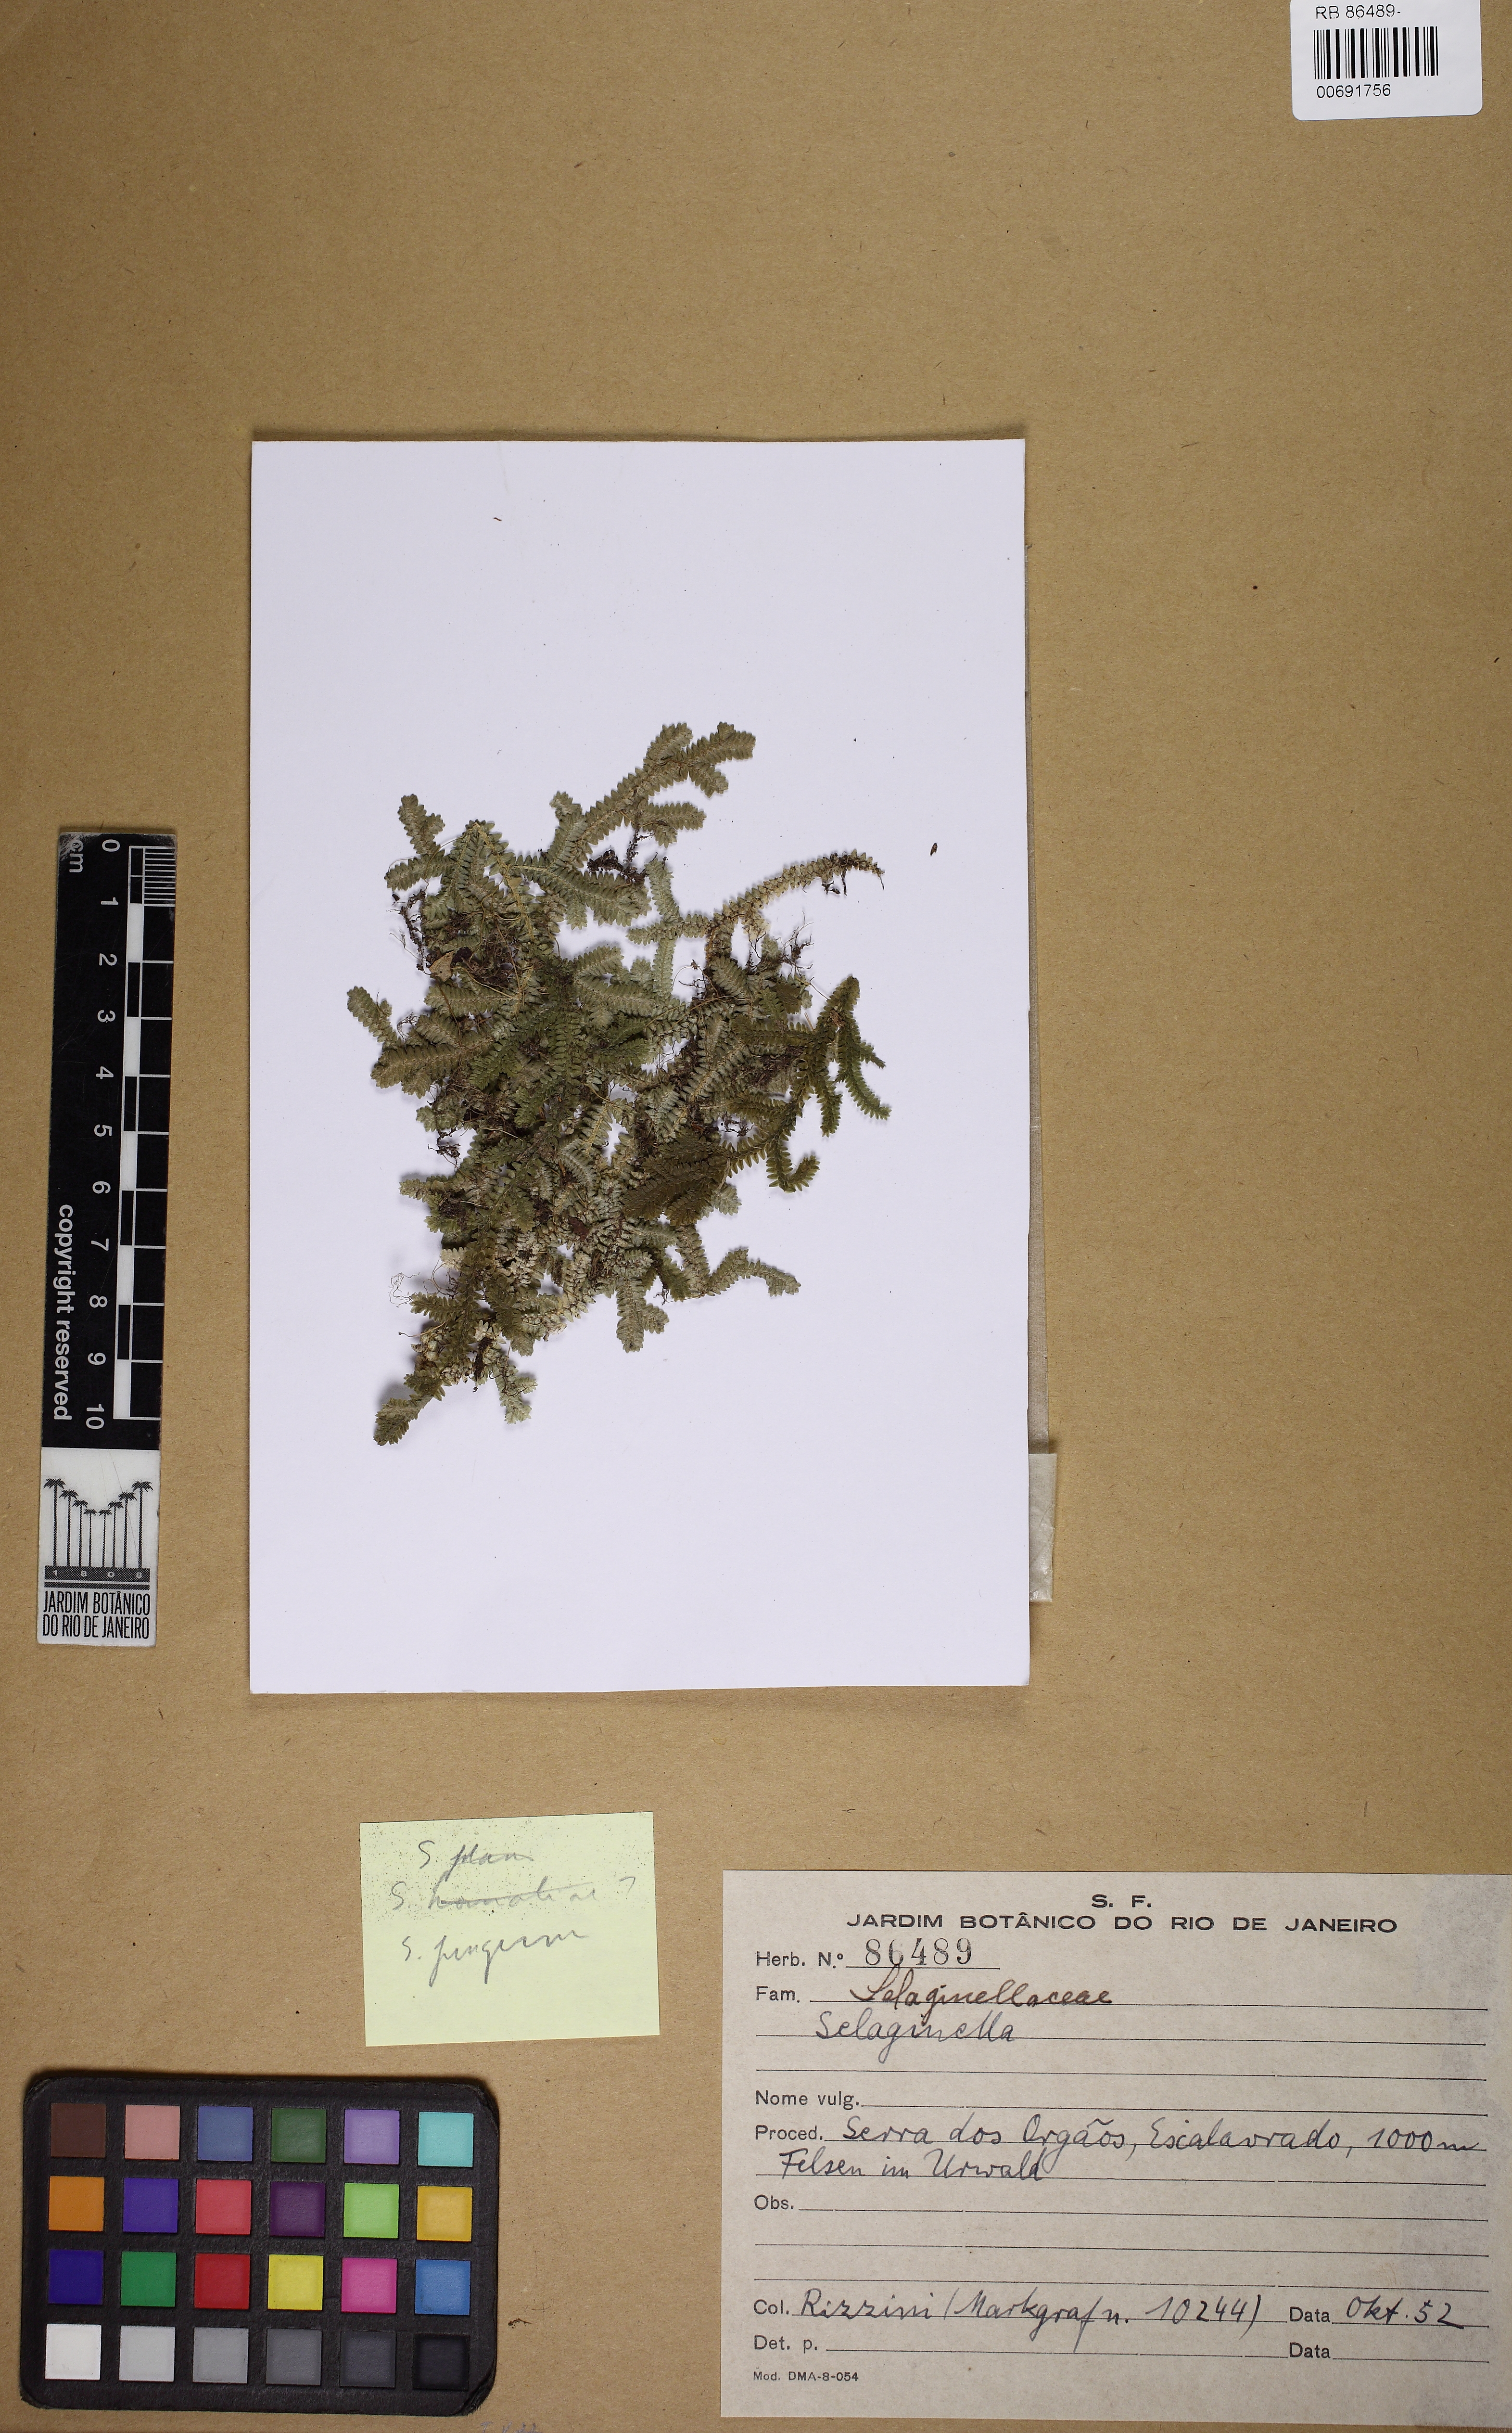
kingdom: Plantae
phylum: Tracheophyta
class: Lycopodiopsida
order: Selaginellales
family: Selaginellaceae
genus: Selaginella
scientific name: Selaginella jungermannioides
